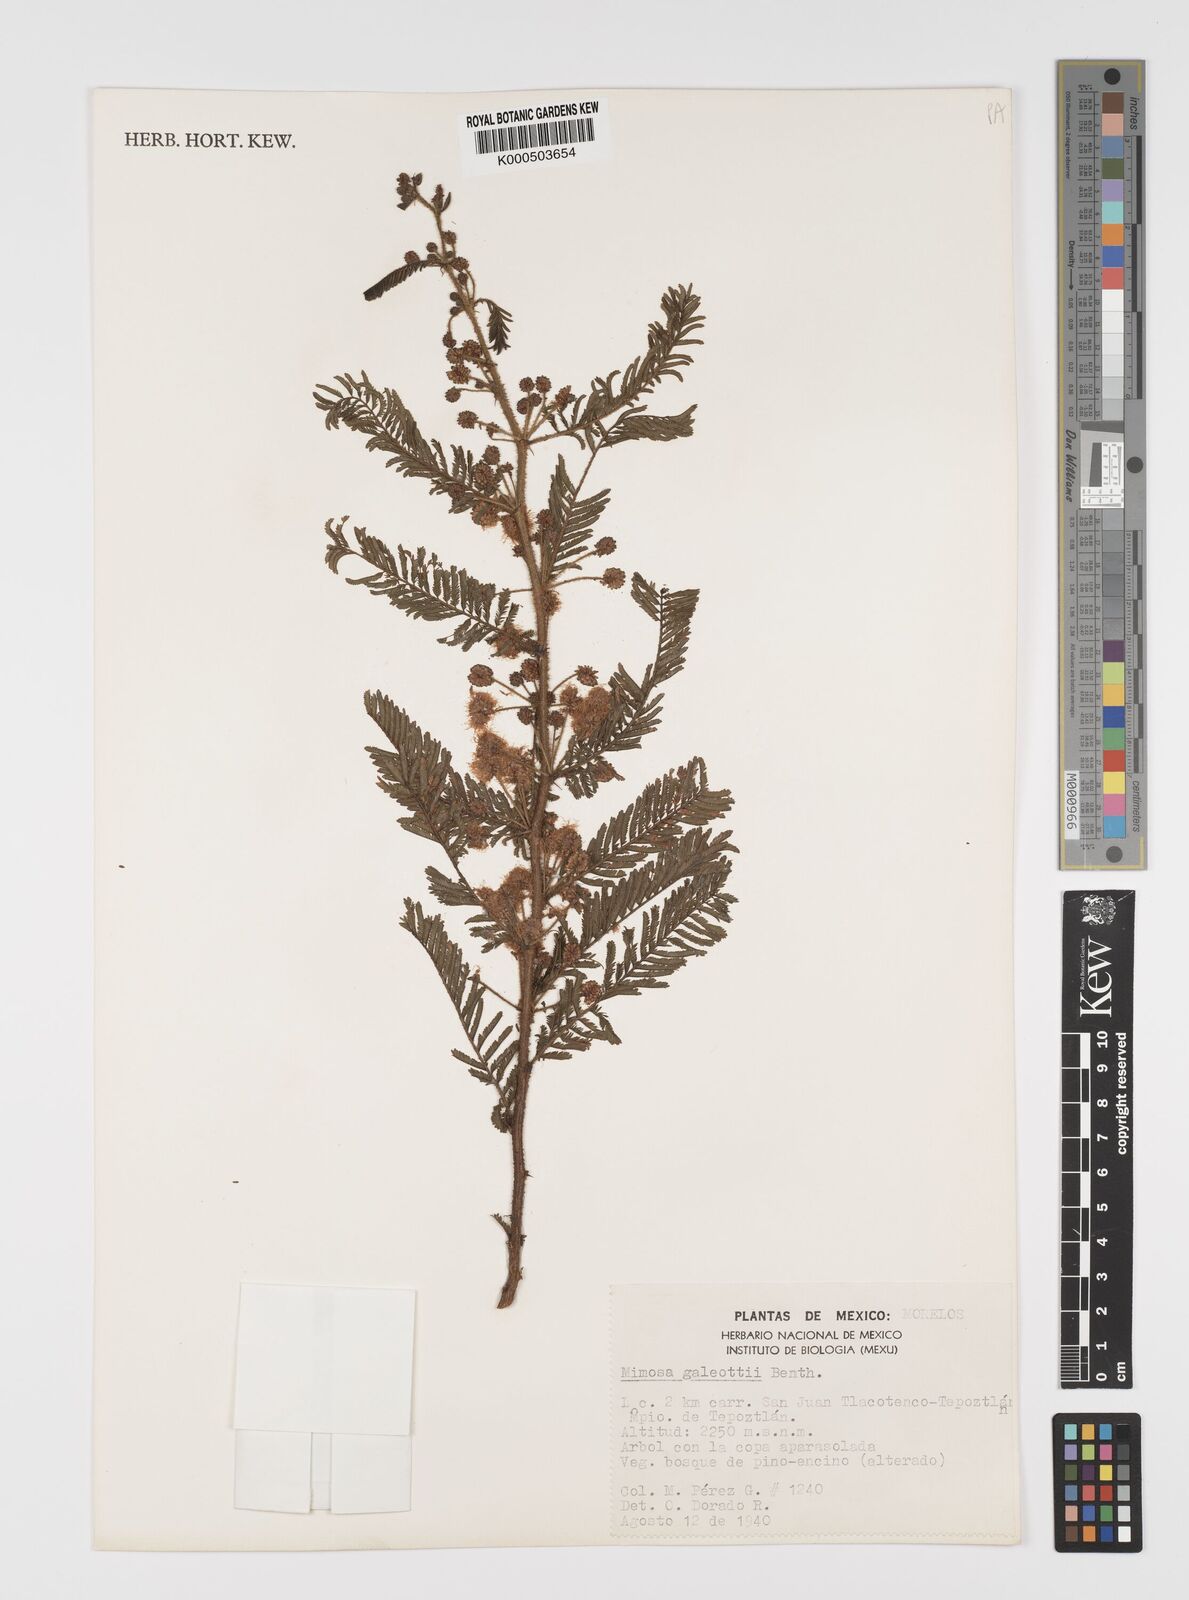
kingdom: Plantae
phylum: Tracheophyta
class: Magnoliopsida
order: Fabales
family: Fabaceae
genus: Mimosa
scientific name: Mimosa galeottii
